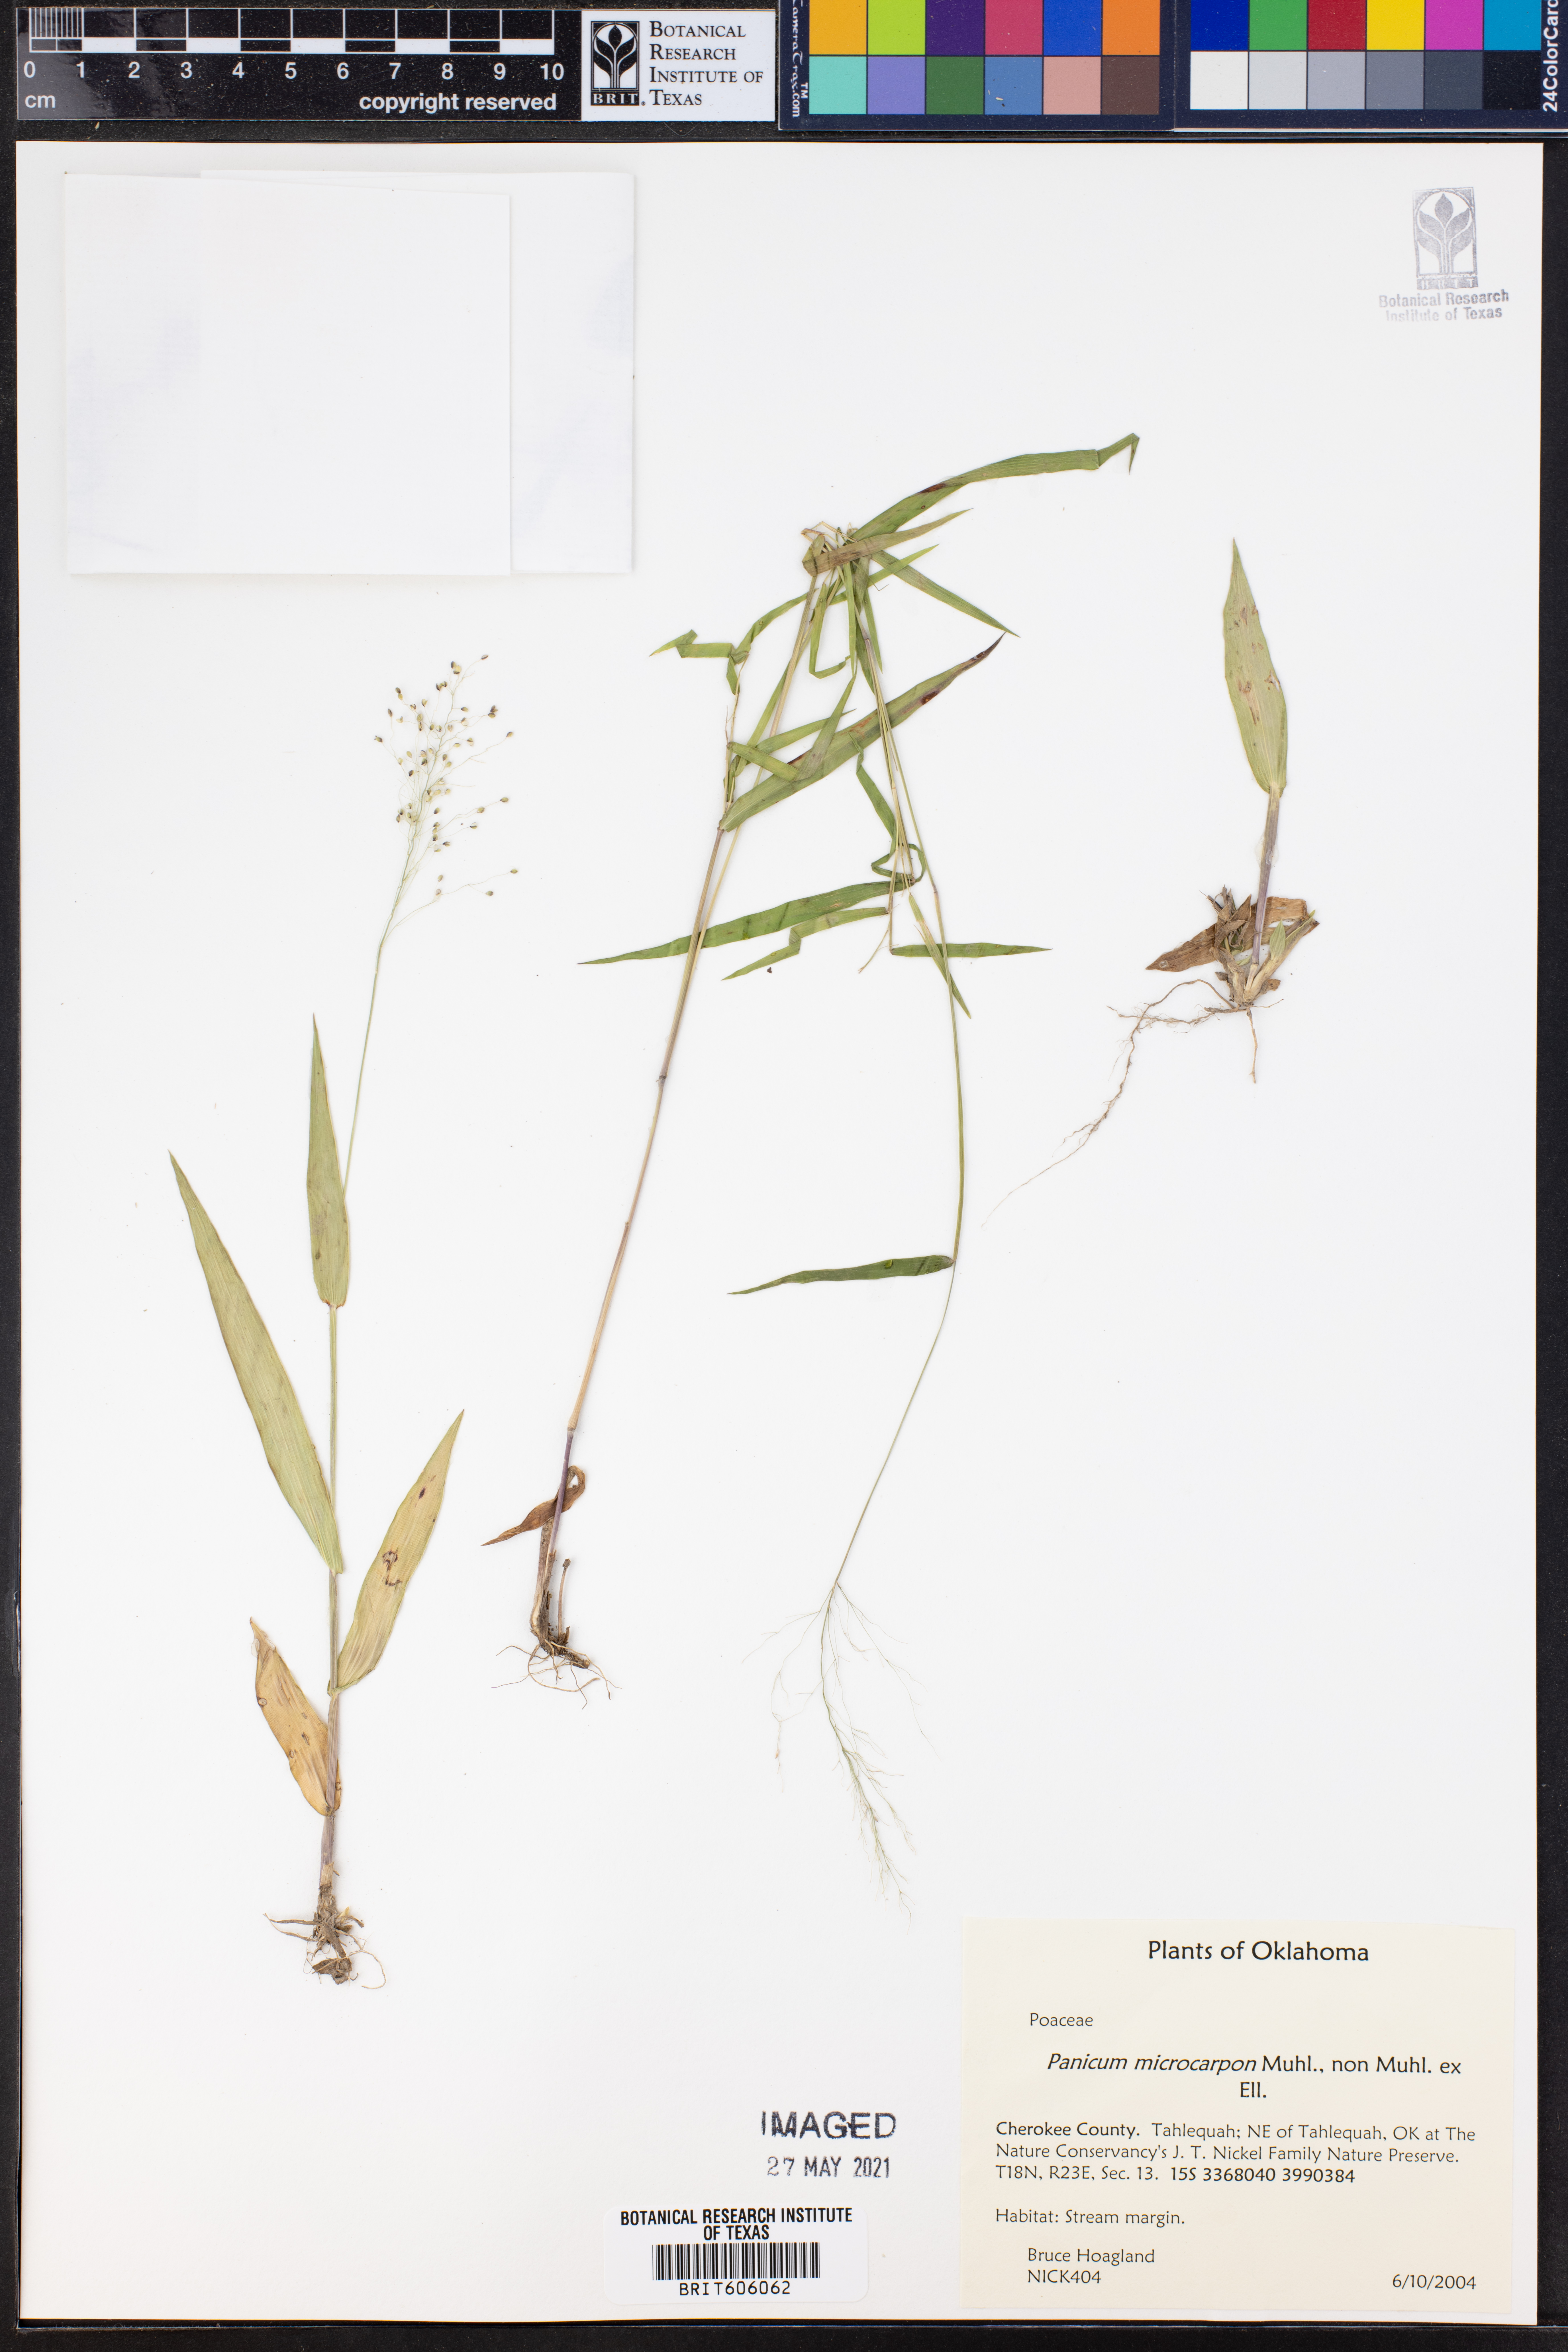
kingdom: Plantae
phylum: Tracheophyta
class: Liliopsida
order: Poales
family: Poaceae
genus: Dichanthelium
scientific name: Dichanthelium polyanthes
